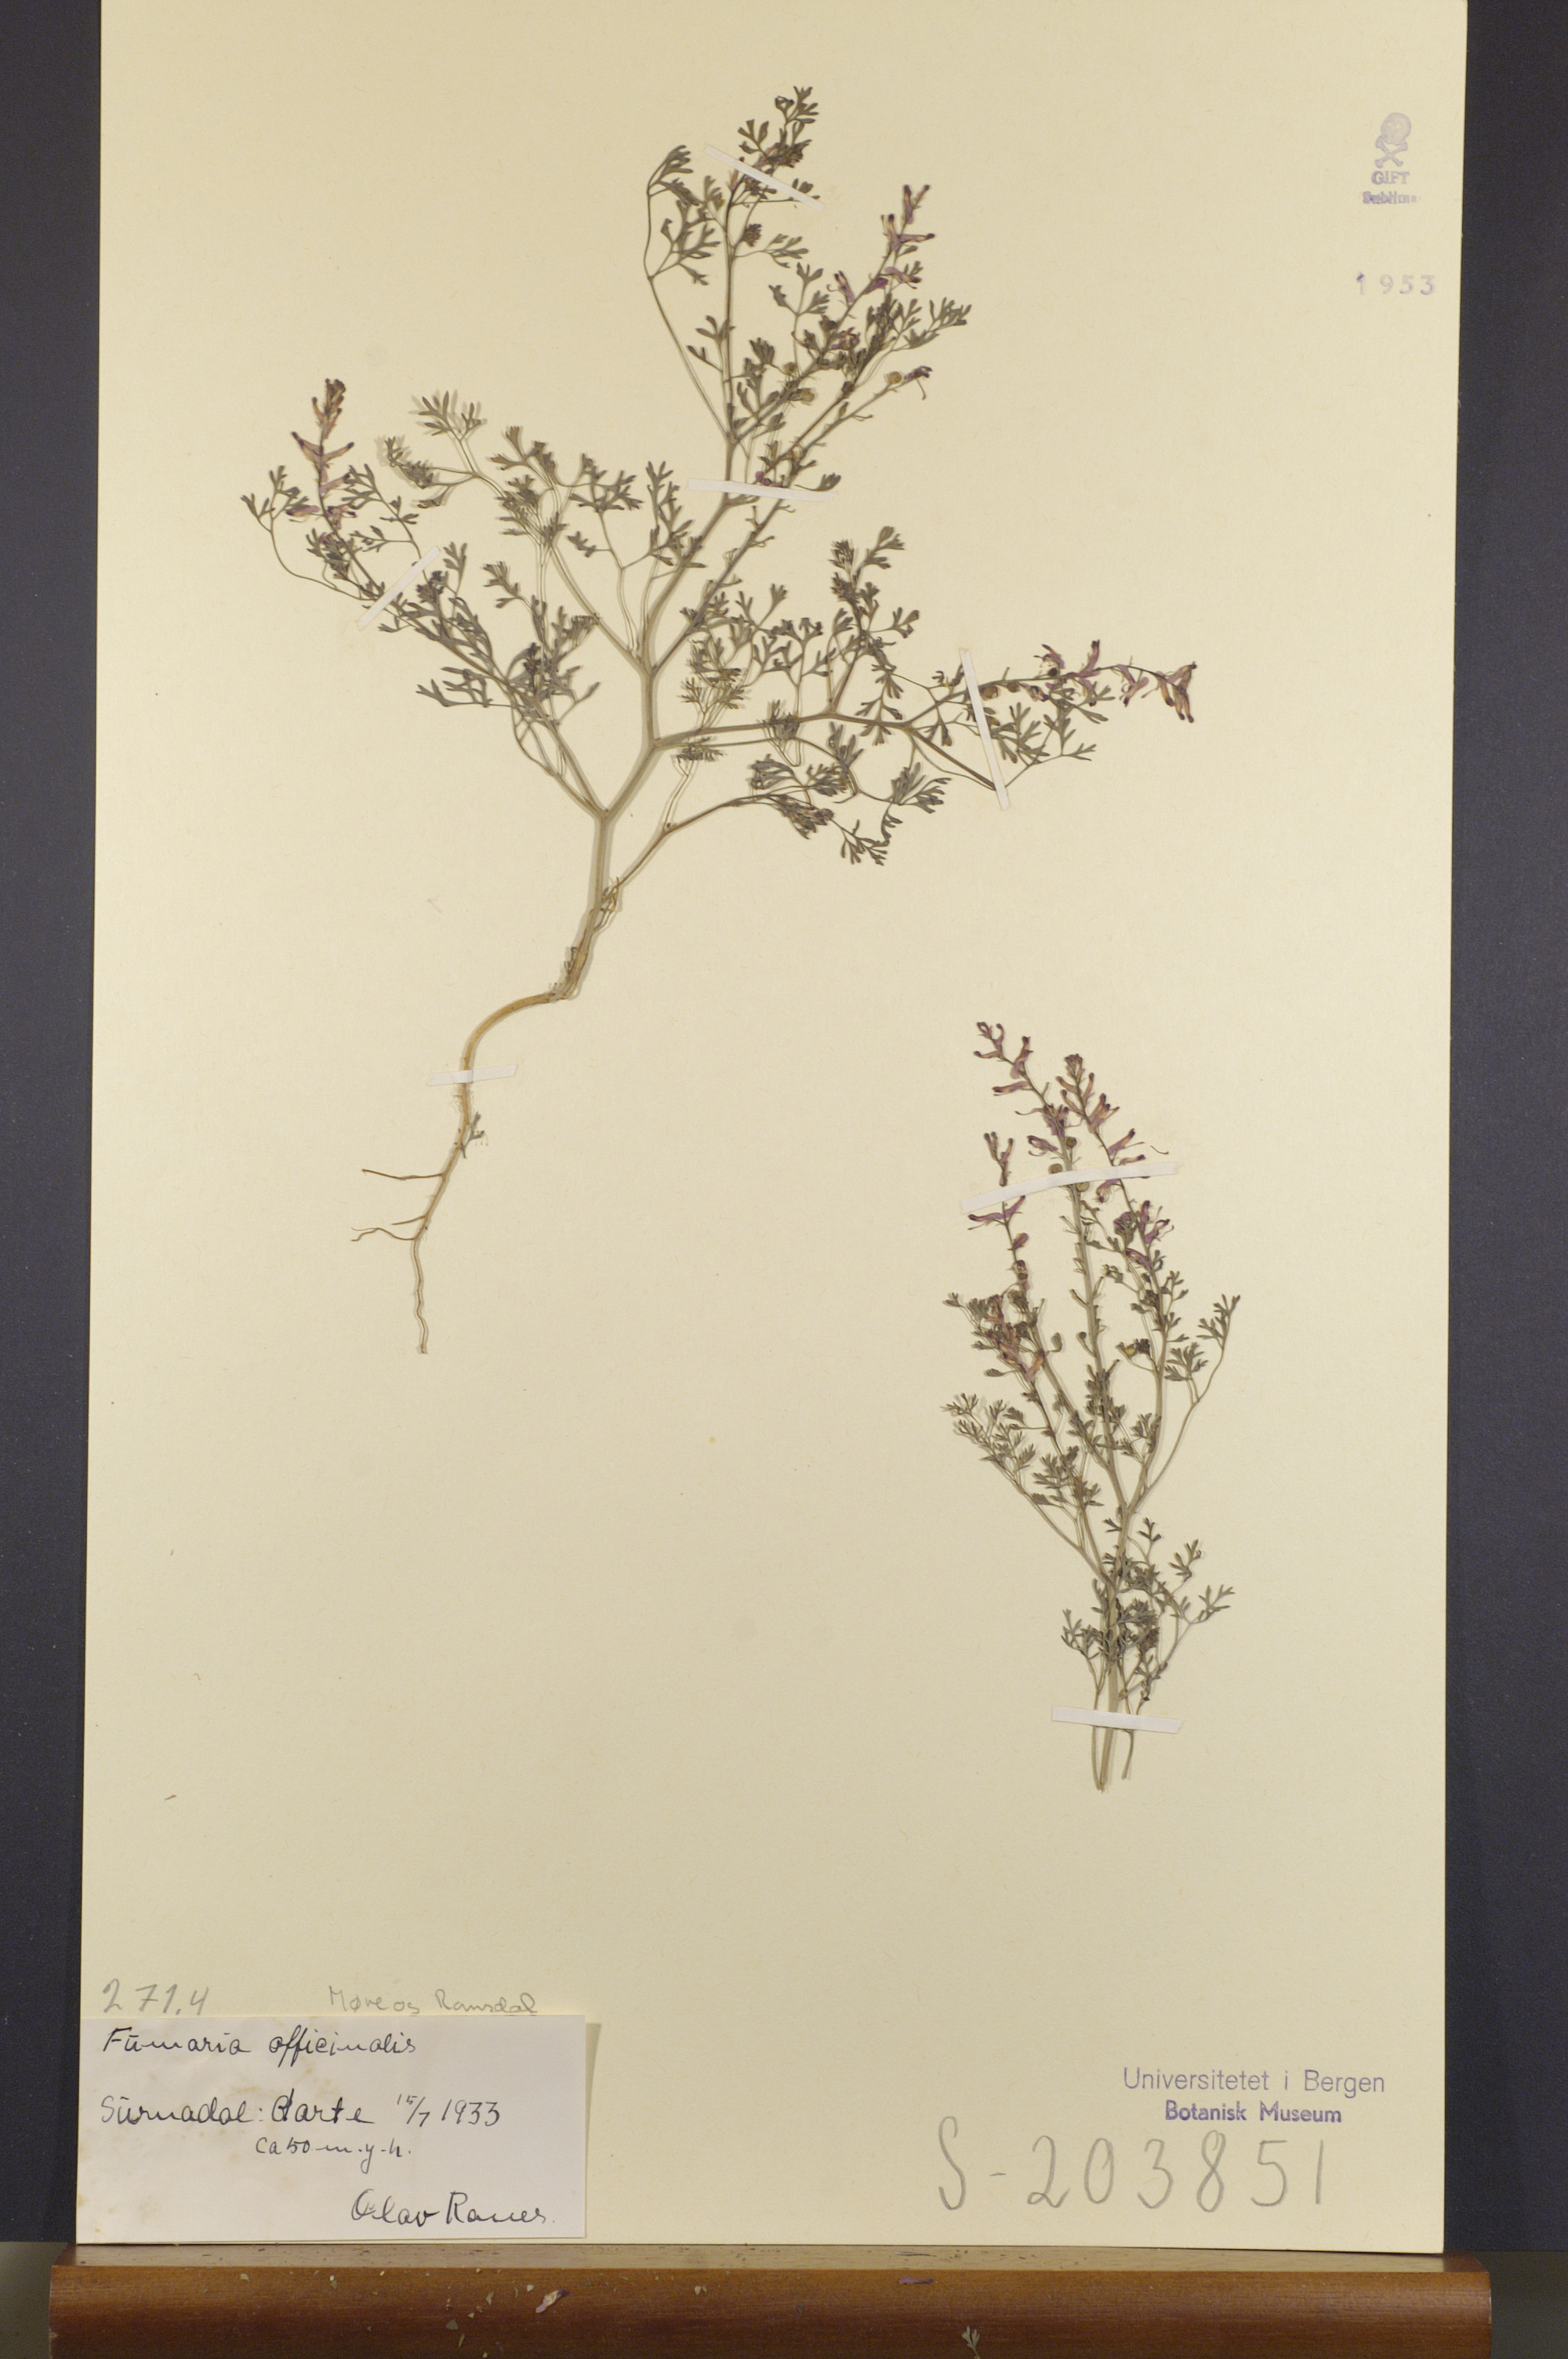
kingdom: Plantae
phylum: Tracheophyta
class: Magnoliopsida
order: Ranunculales
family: Papaveraceae
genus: Fumaria
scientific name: Fumaria officinalis
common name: Common fumitory
